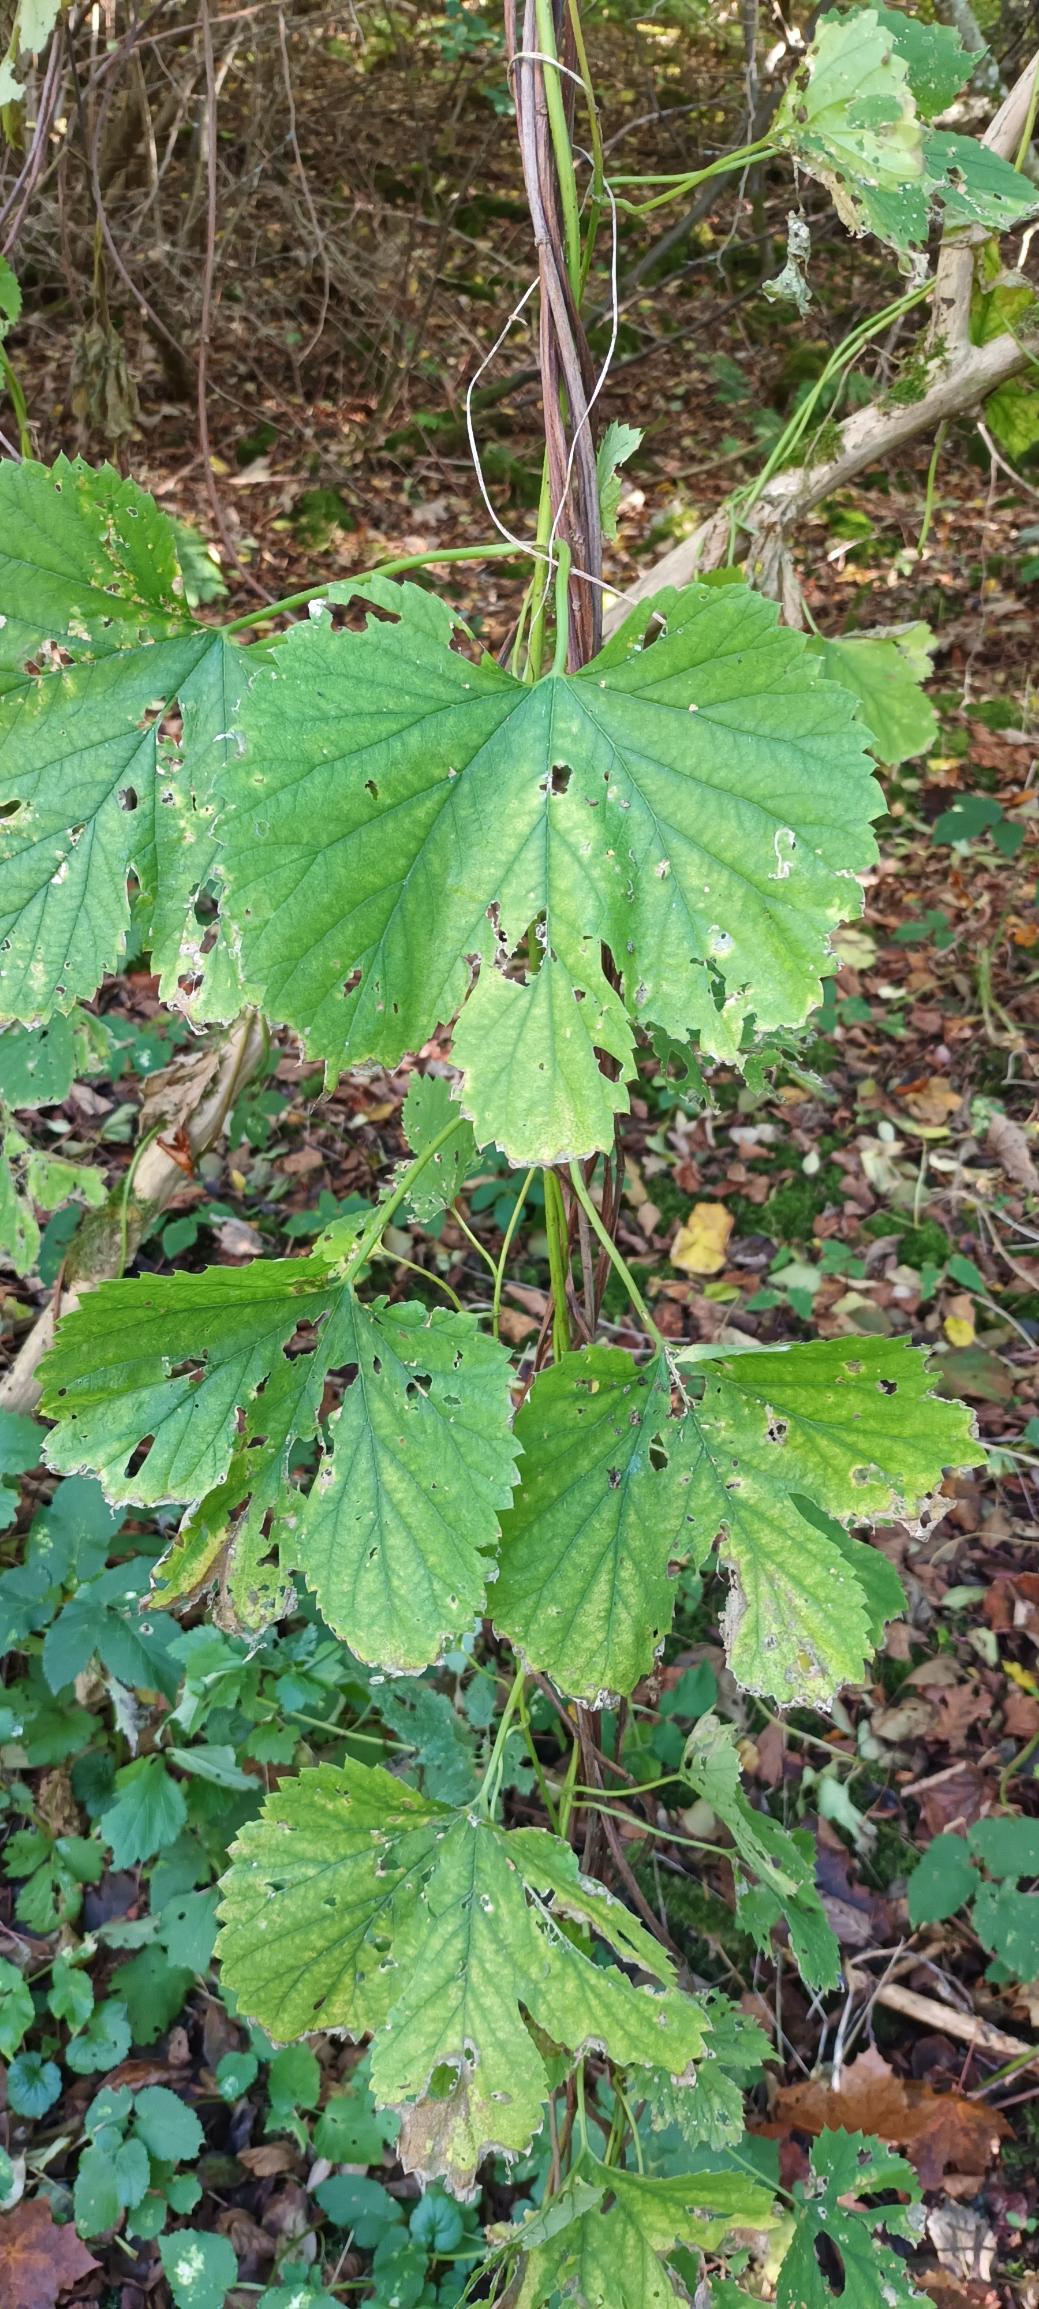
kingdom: Plantae
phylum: Tracheophyta
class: Magnoliopsida
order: Rosales
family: Cannabaceae
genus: Humulus
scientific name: Humulus lupulus
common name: Humle
